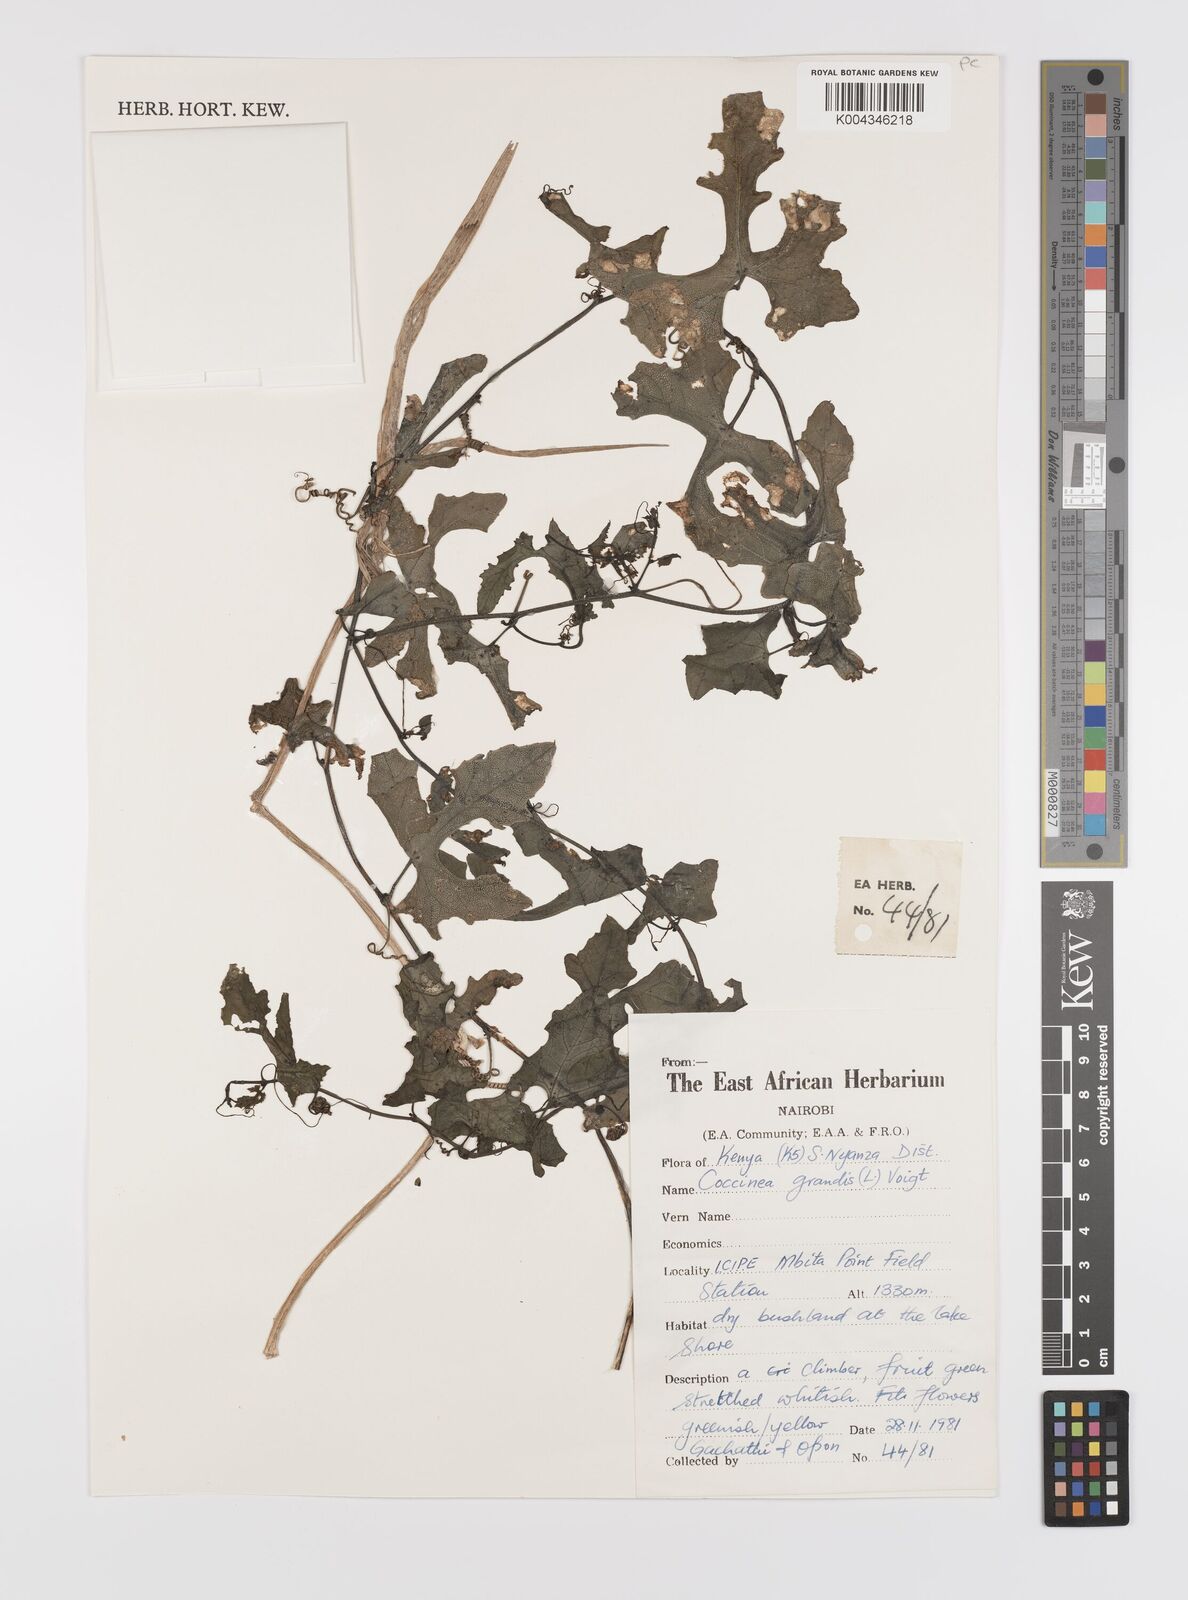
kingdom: Plantae
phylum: Tracheophyta
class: Magnoliopsida
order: Cucurbitales
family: Cucurbitaceae
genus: Coccinia
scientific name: Coccinia grandis
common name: Ivy gourd
